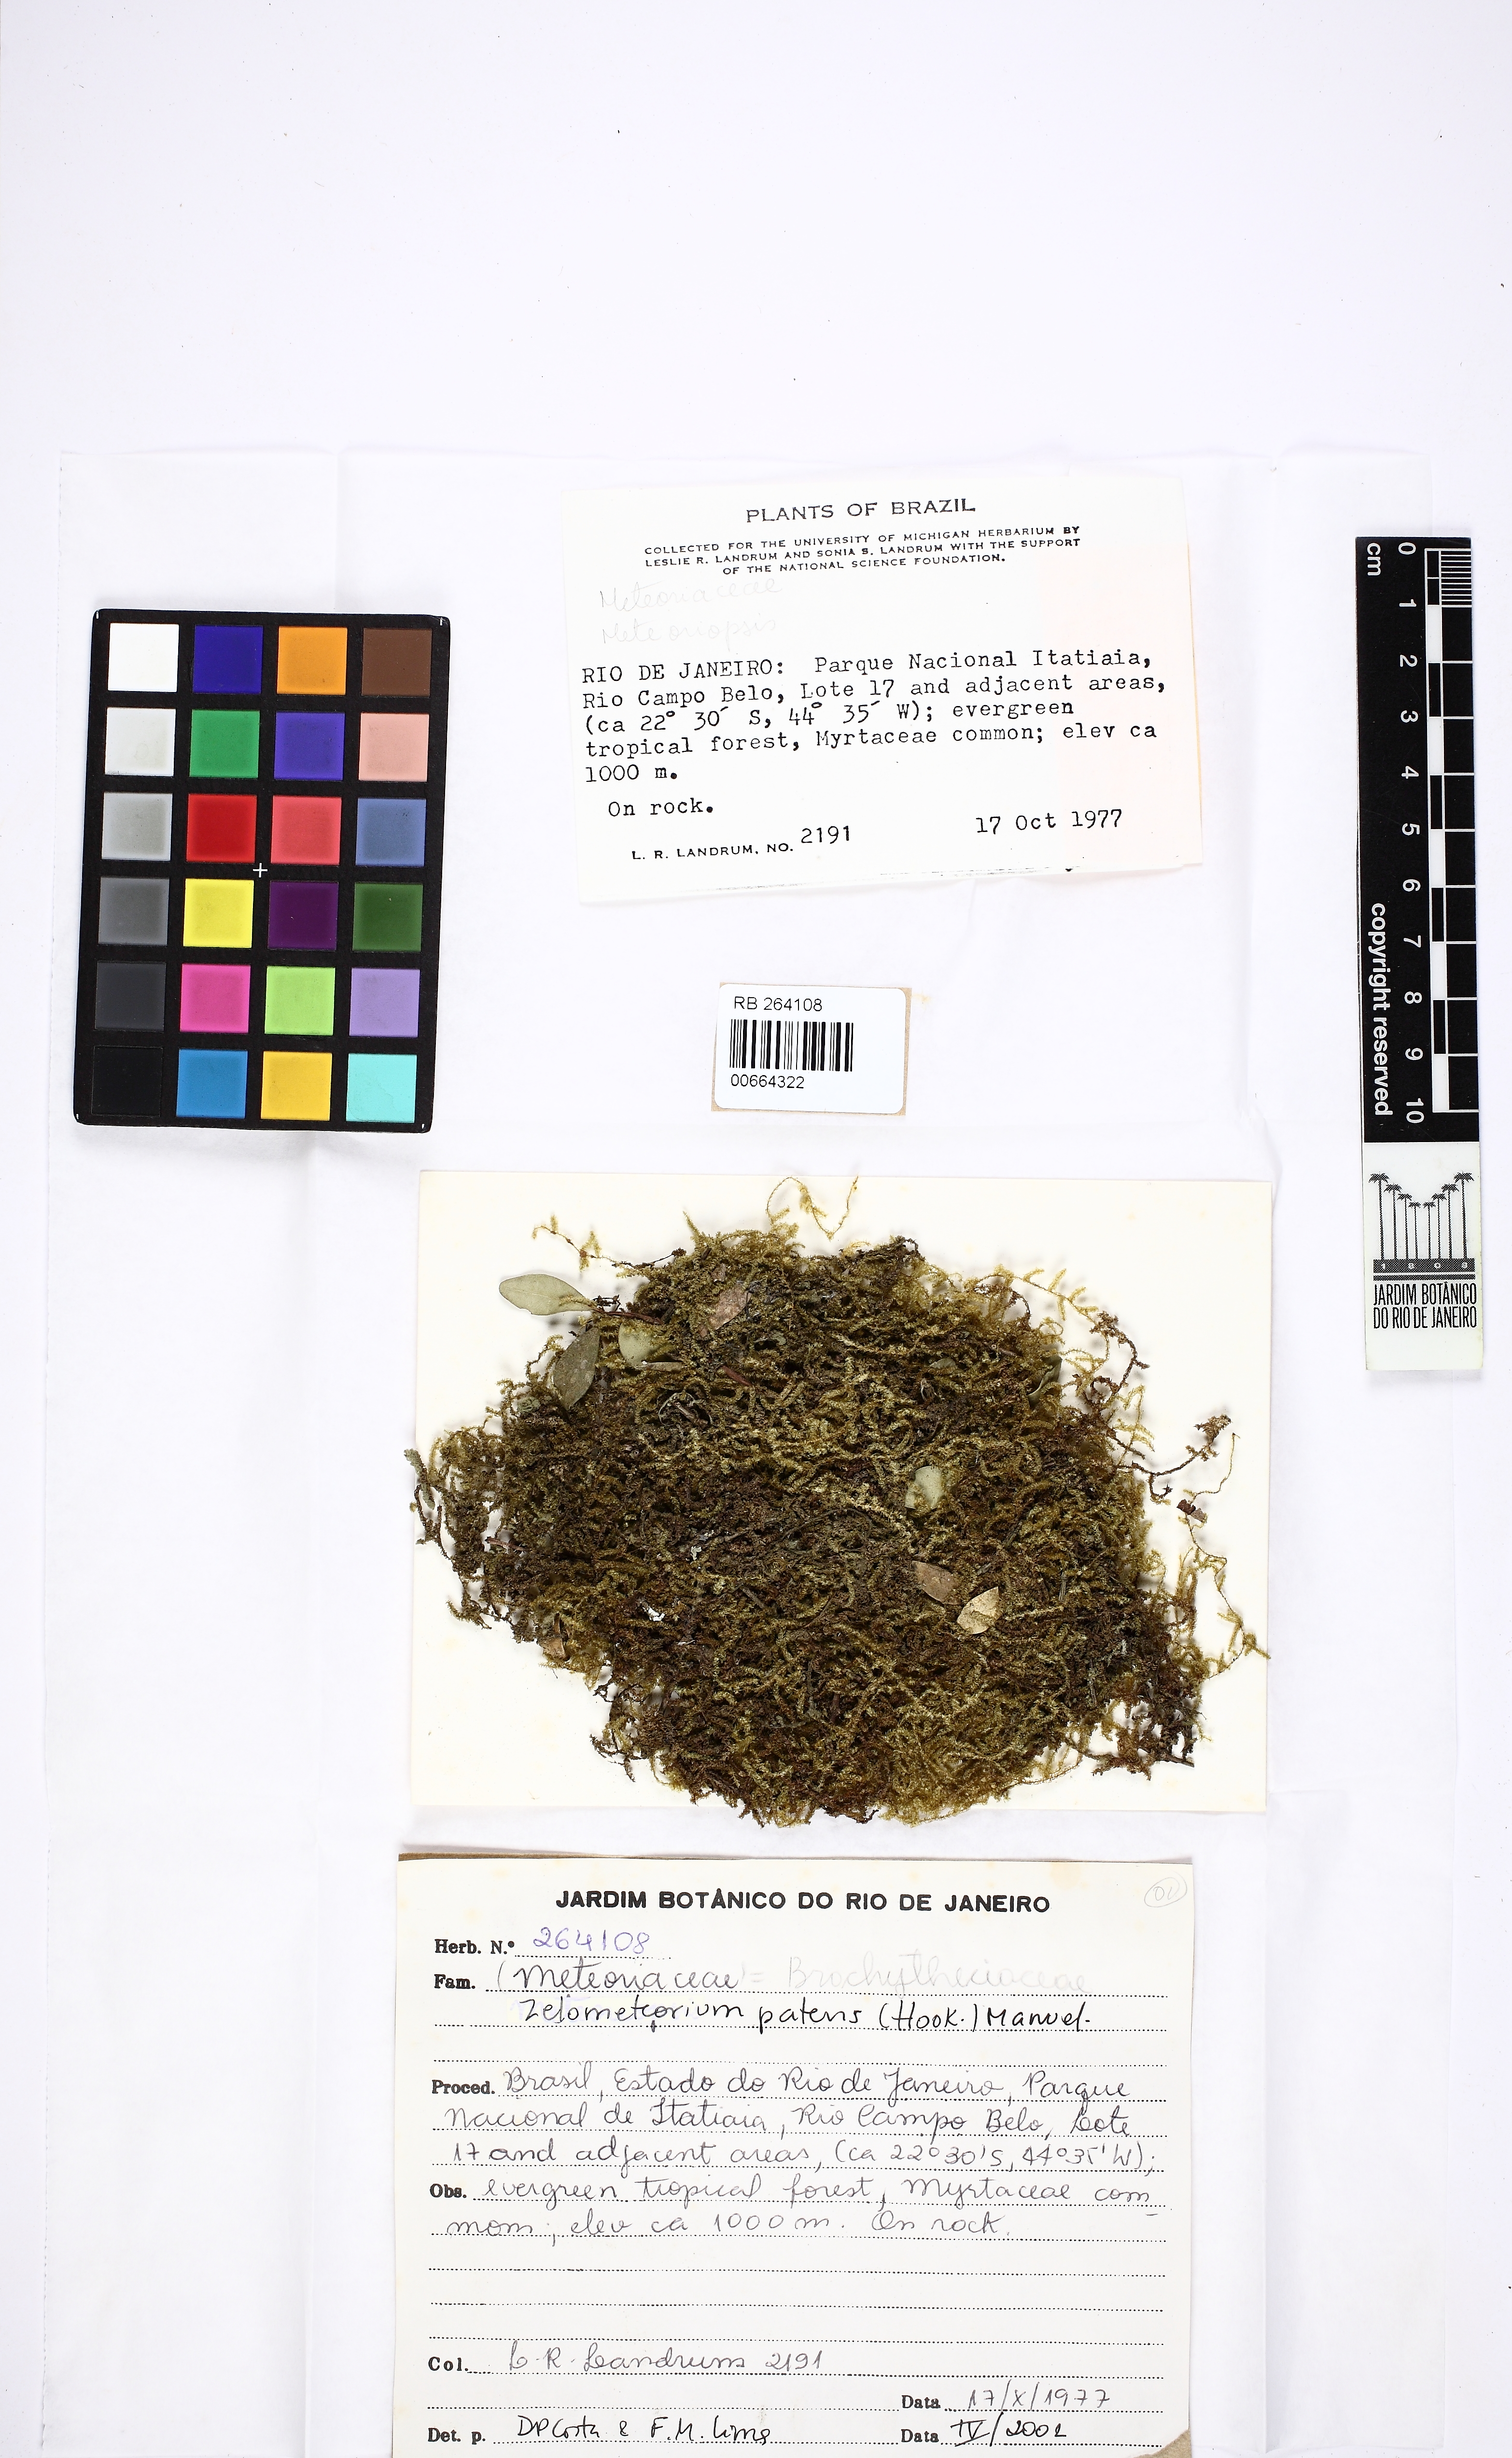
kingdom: Plantae
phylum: Bryophyta
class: Bryopsida
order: Hypnales
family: Brachytheciaceae
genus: Zelometeorium
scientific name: Zelometeorium patens
